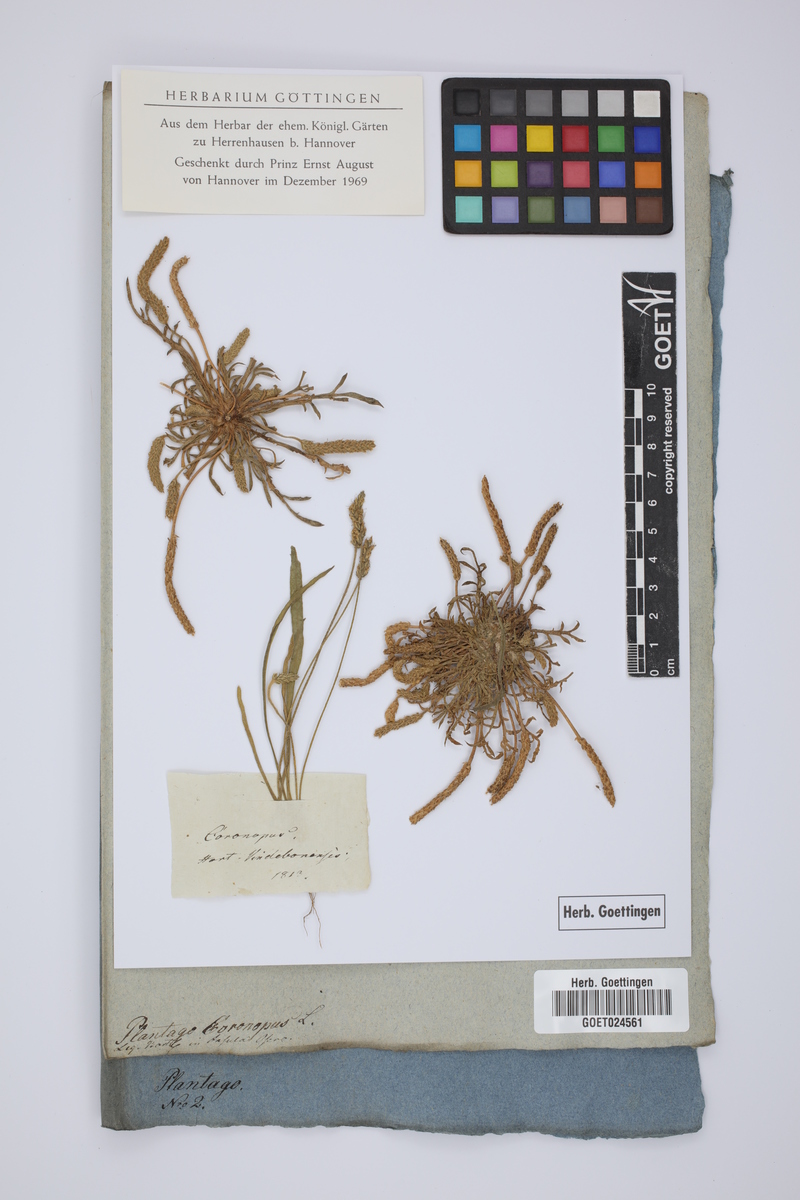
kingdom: Plantae
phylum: Tracheophyta
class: Magnoliopsida
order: Lamiales
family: Plantaginaceae
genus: Plantago
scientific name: Plantago coronopus
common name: Buck's-horn plantain
